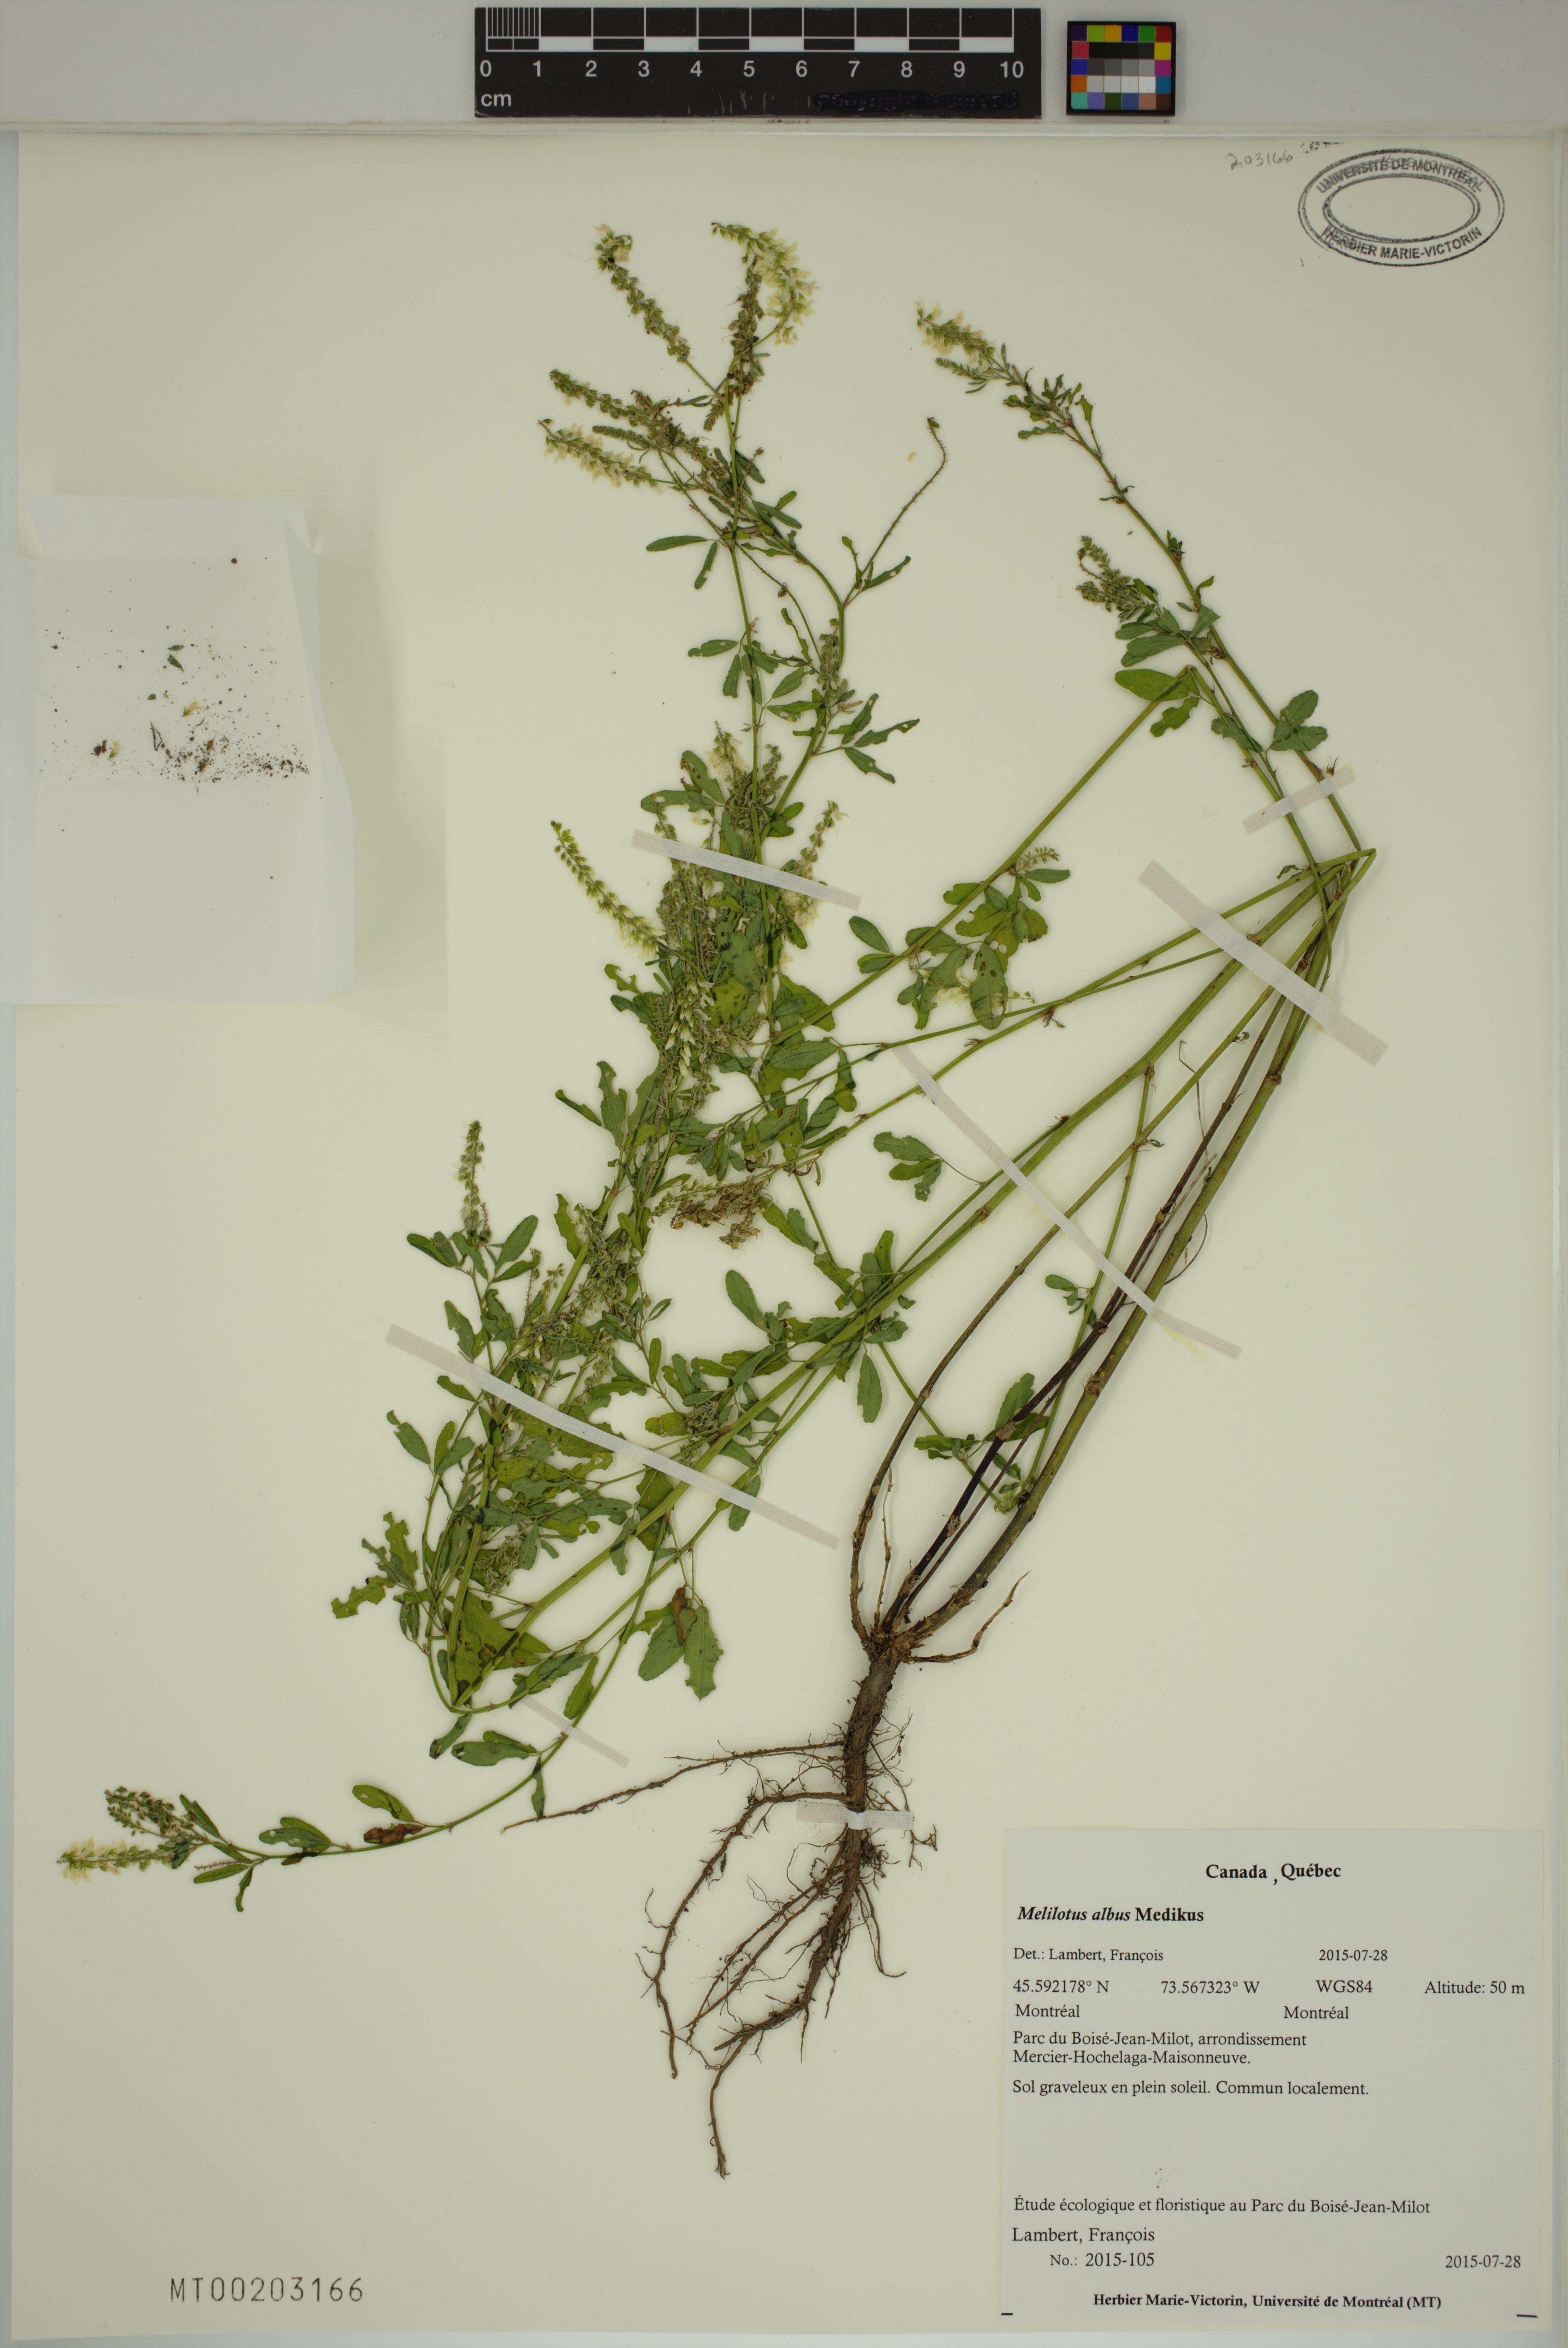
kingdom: Plantae
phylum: Tracheophyta
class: Magnoliopsida
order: Fabales
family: Fabaceae
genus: Melilotus
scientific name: Melilotus albus
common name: White melilot
